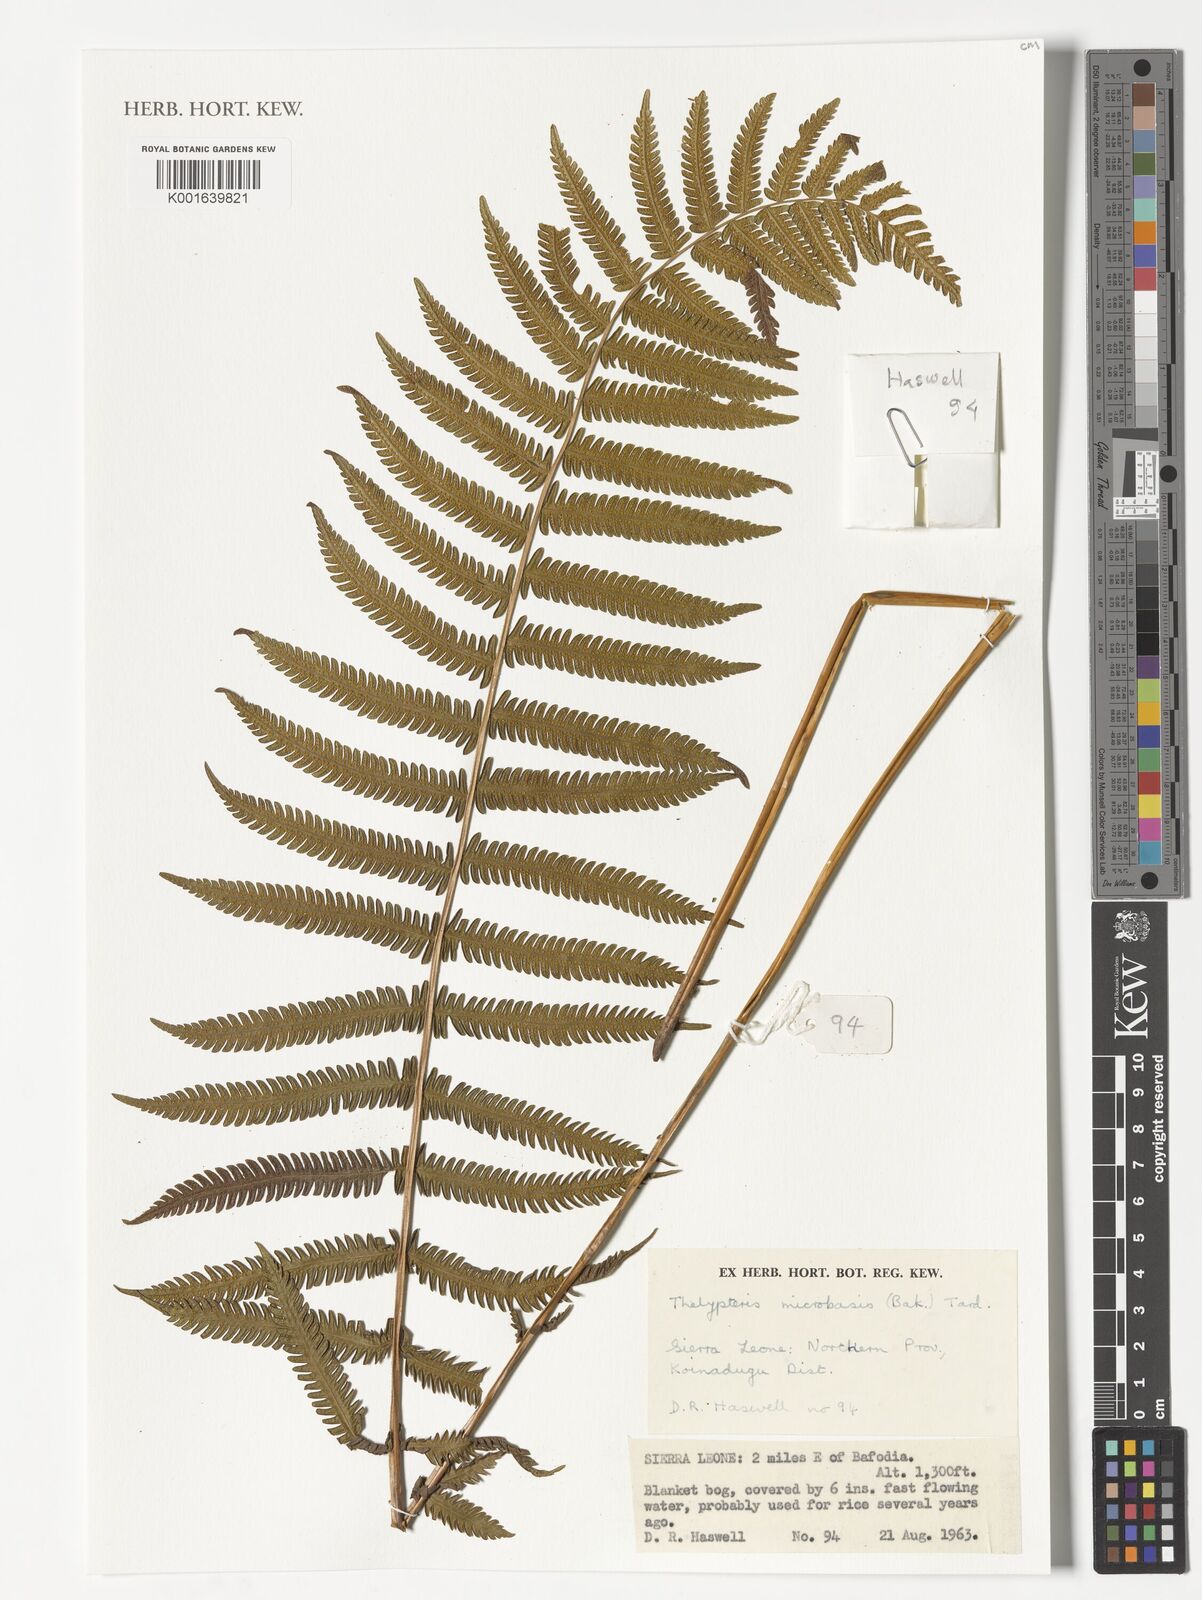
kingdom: Plantae
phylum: Tracheophyta
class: Polypodiopsida
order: Polypodiales
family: Thelypteridaceae
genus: Christella
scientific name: Christella microbasis
